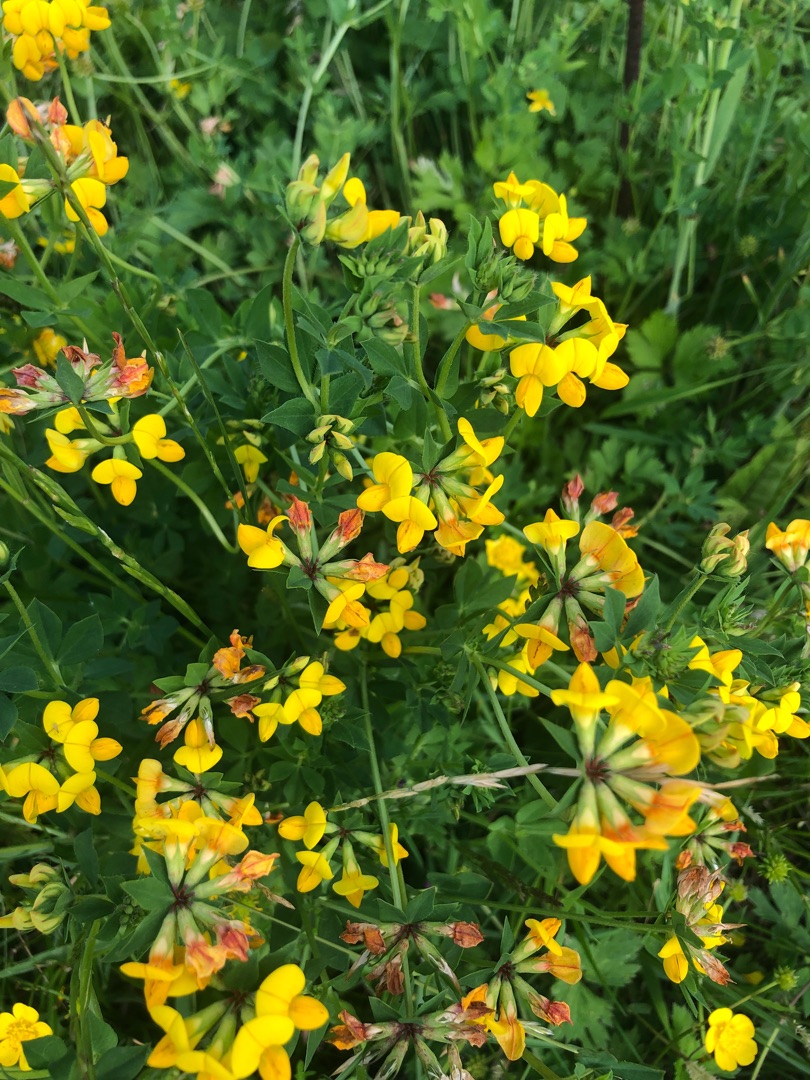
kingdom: Plantae
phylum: Tracheophyta
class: Magnoliopsida
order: Fabales
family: Fabaceae
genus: Lotus
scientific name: Lotus corniculatus
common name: Almindelig kællingetand
